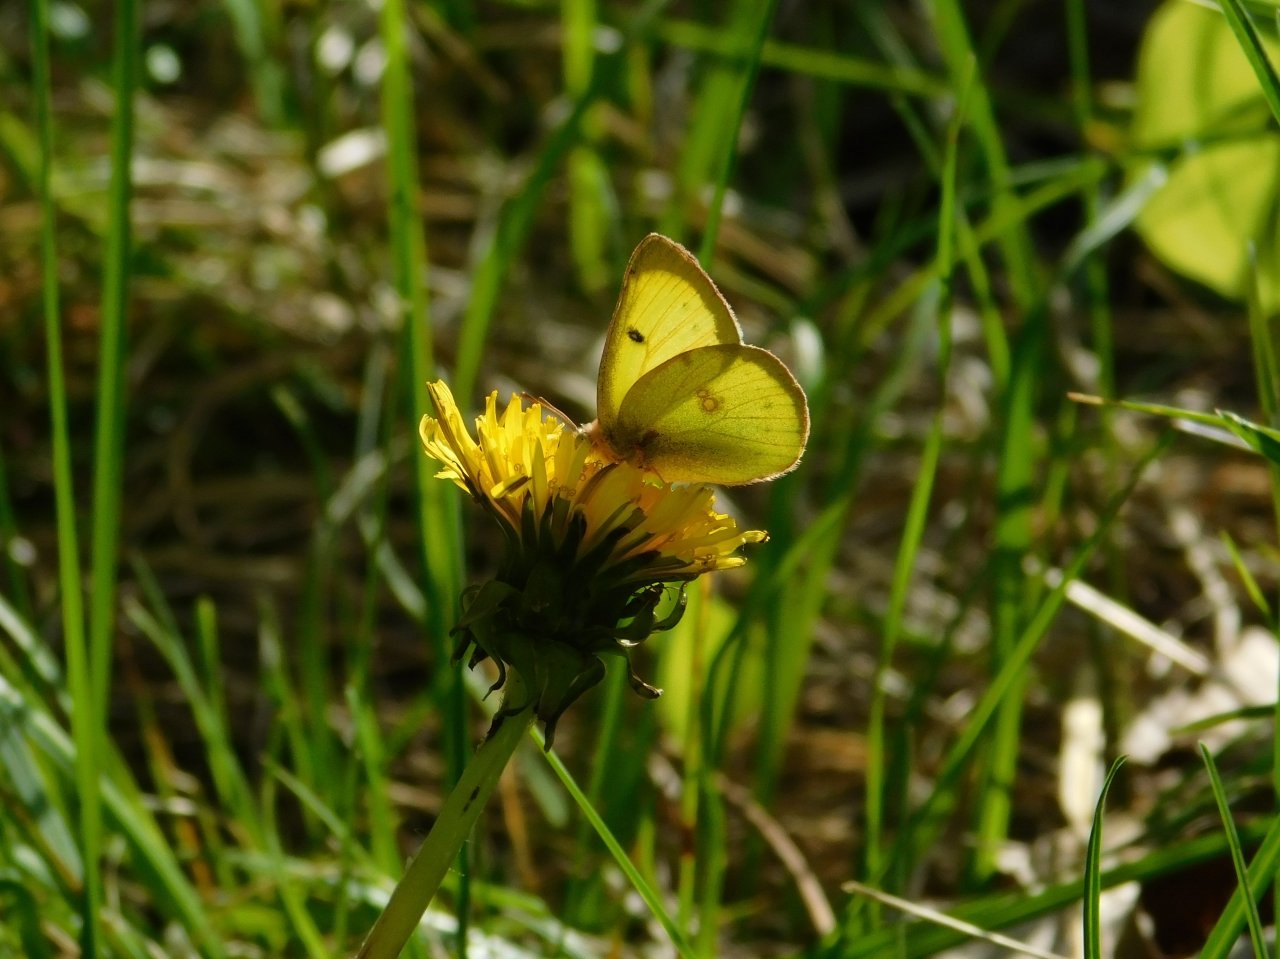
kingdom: Animalia
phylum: Arthropoda
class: Insecta
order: Lepidoptera
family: Pieridae
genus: Colias
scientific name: Colias philodice
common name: Clouded Sulphur
